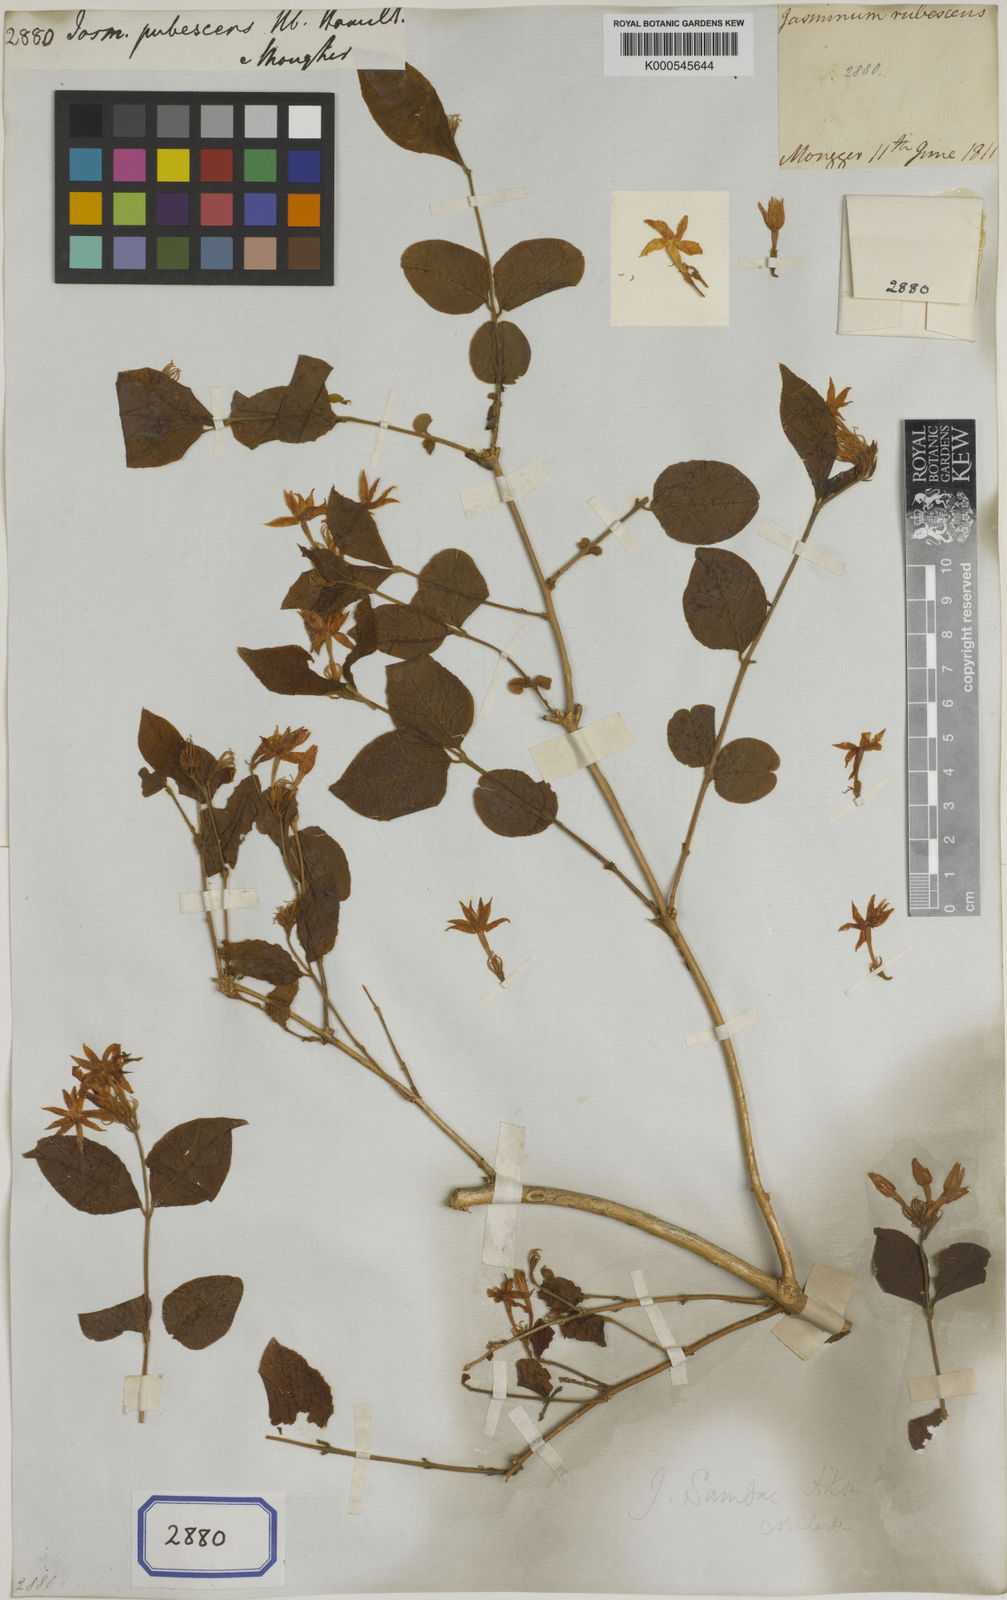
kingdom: Plantae
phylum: Tracheophyta
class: Magnoliopsida
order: Lamiales
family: Oleaceae
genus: Jasminum
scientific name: Jasminum malabaricum
